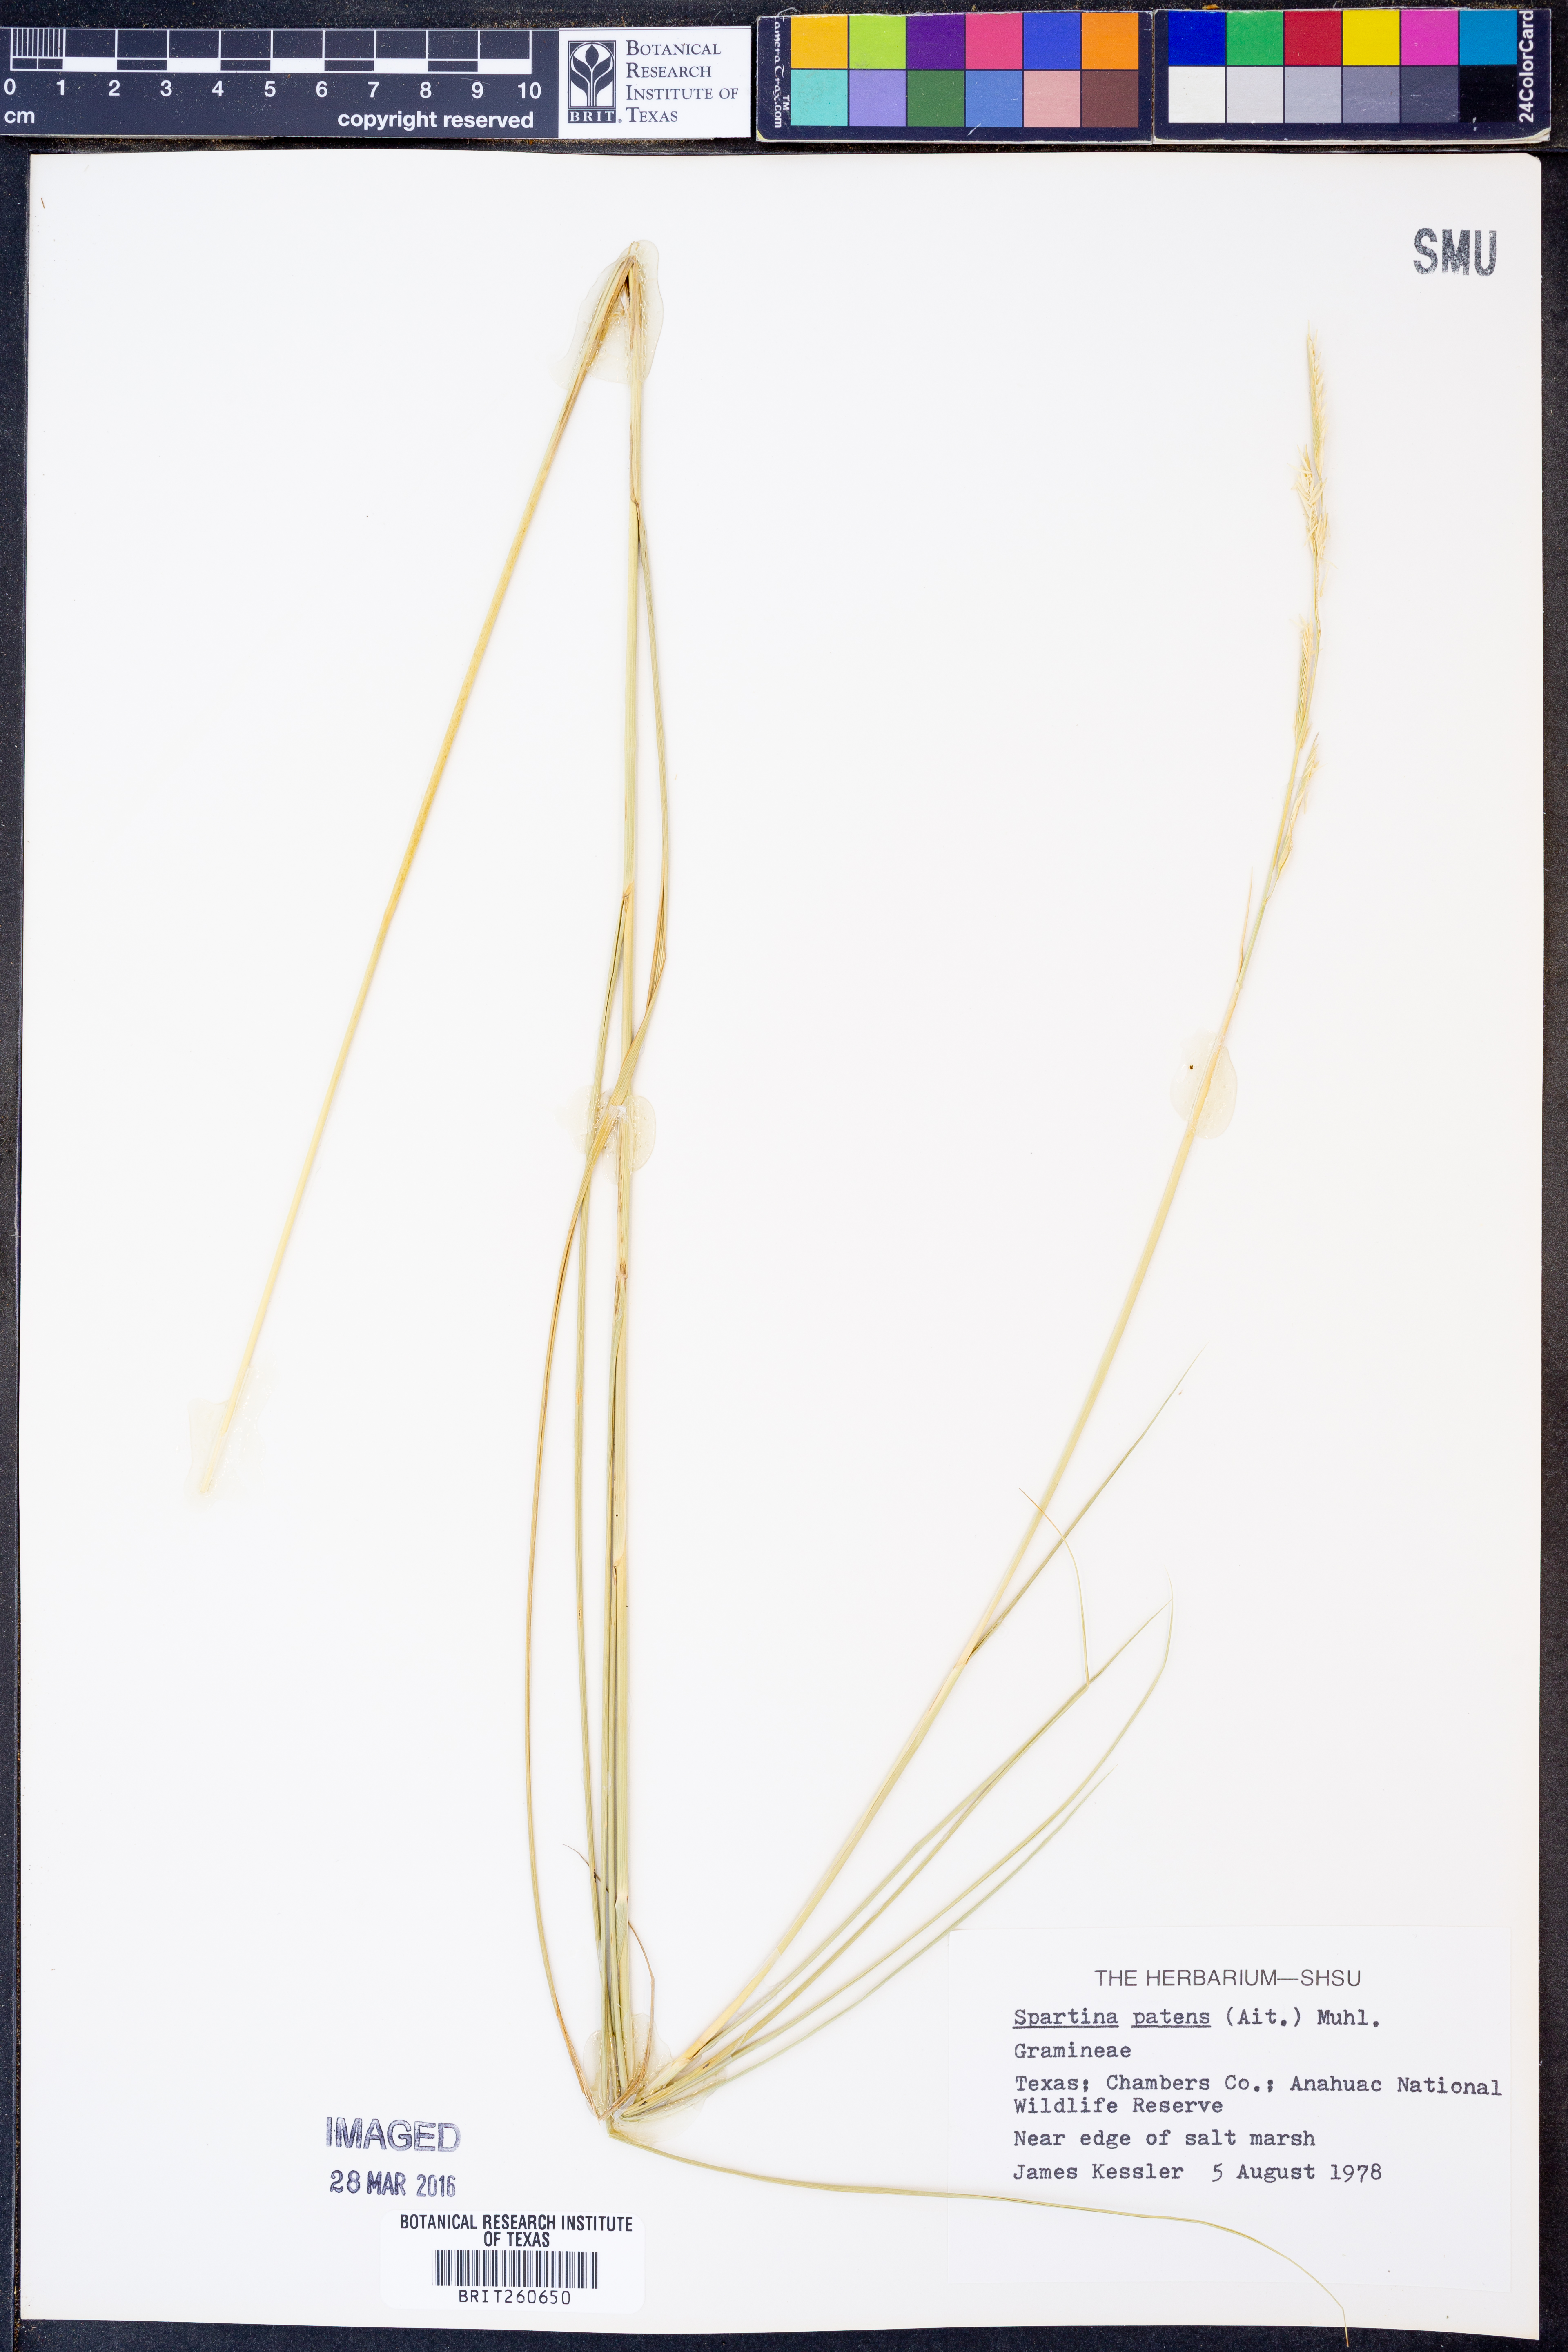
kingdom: Plantae
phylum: Tracheophyta
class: Liliopsida
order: Poales
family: Poaceae
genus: Sporobolus
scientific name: Sporobolus pumilus
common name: Highwater grass
